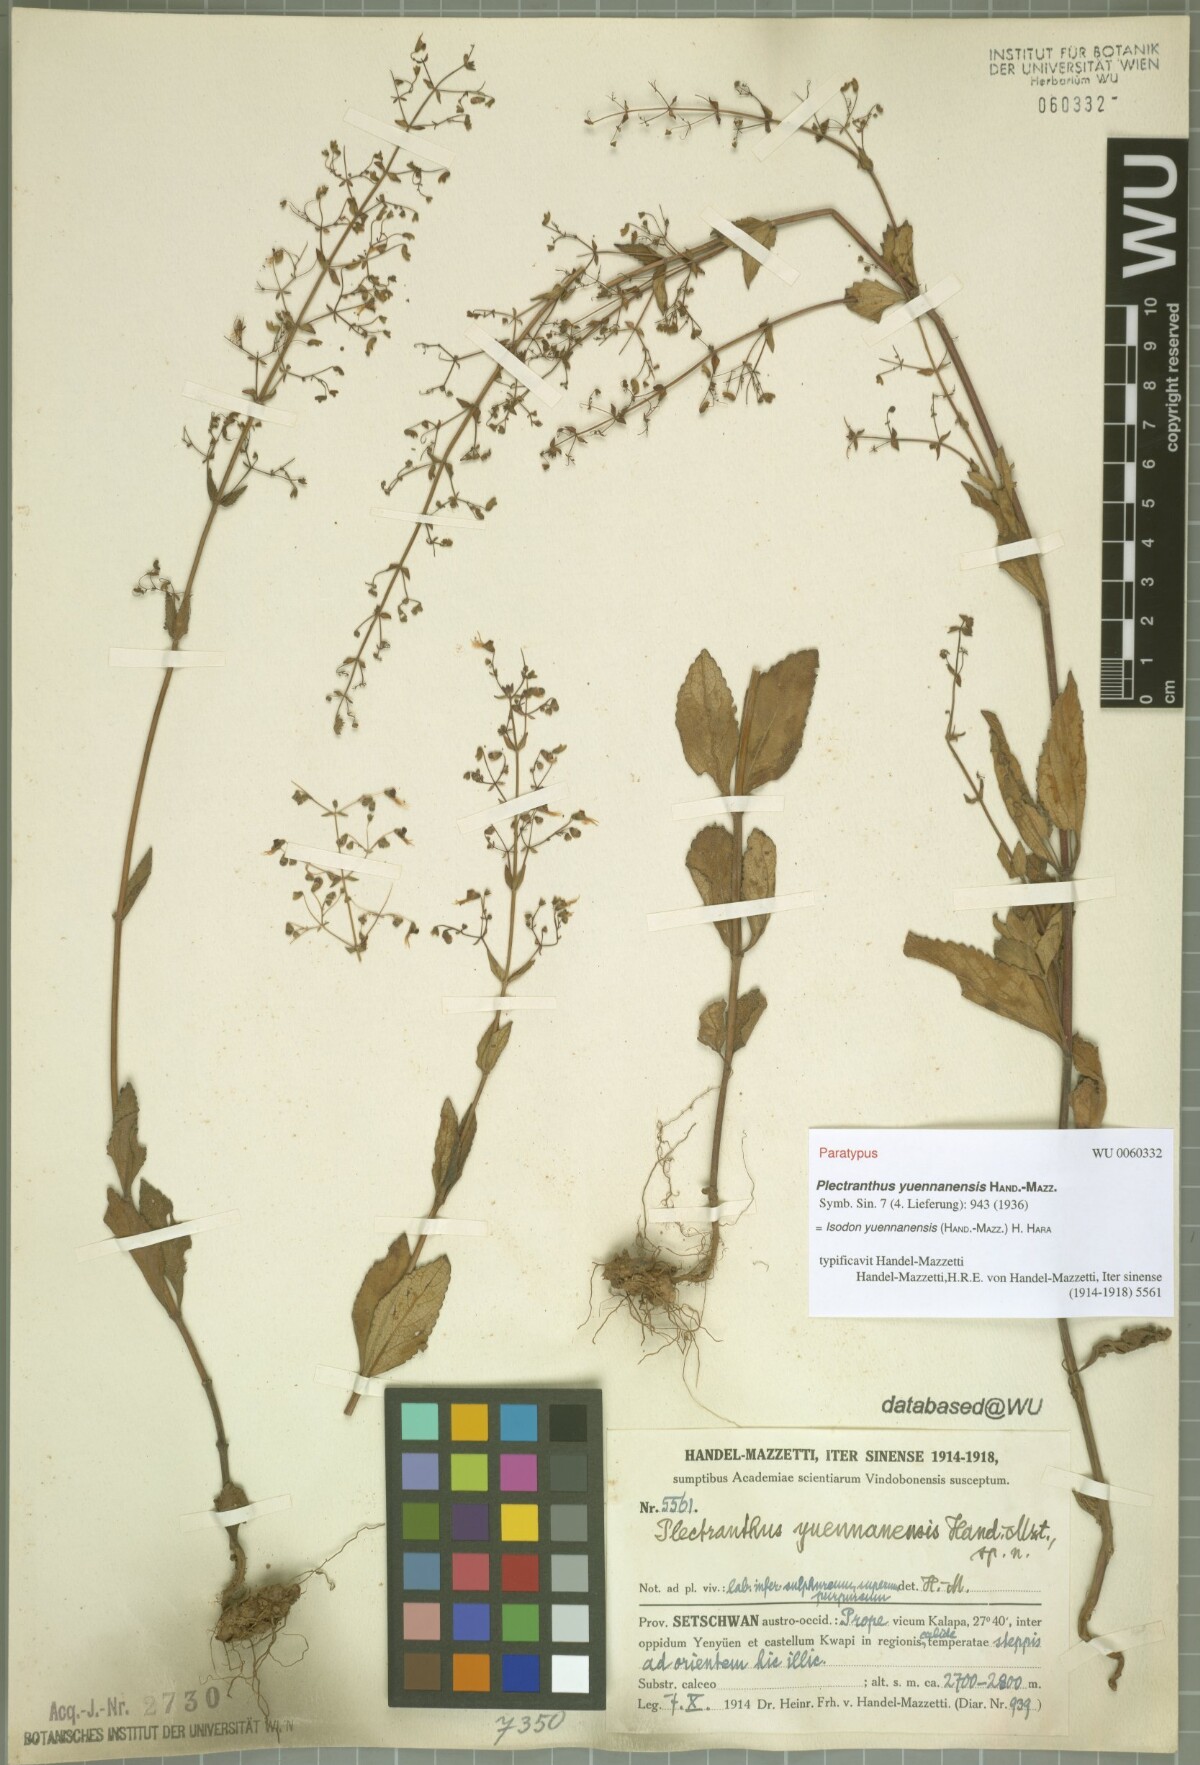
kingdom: Plantae
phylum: Tracheophyta
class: Magnoliopsida
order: Lamiales
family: Lamiaceae
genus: Isodon
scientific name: Isodon yuennanensis
